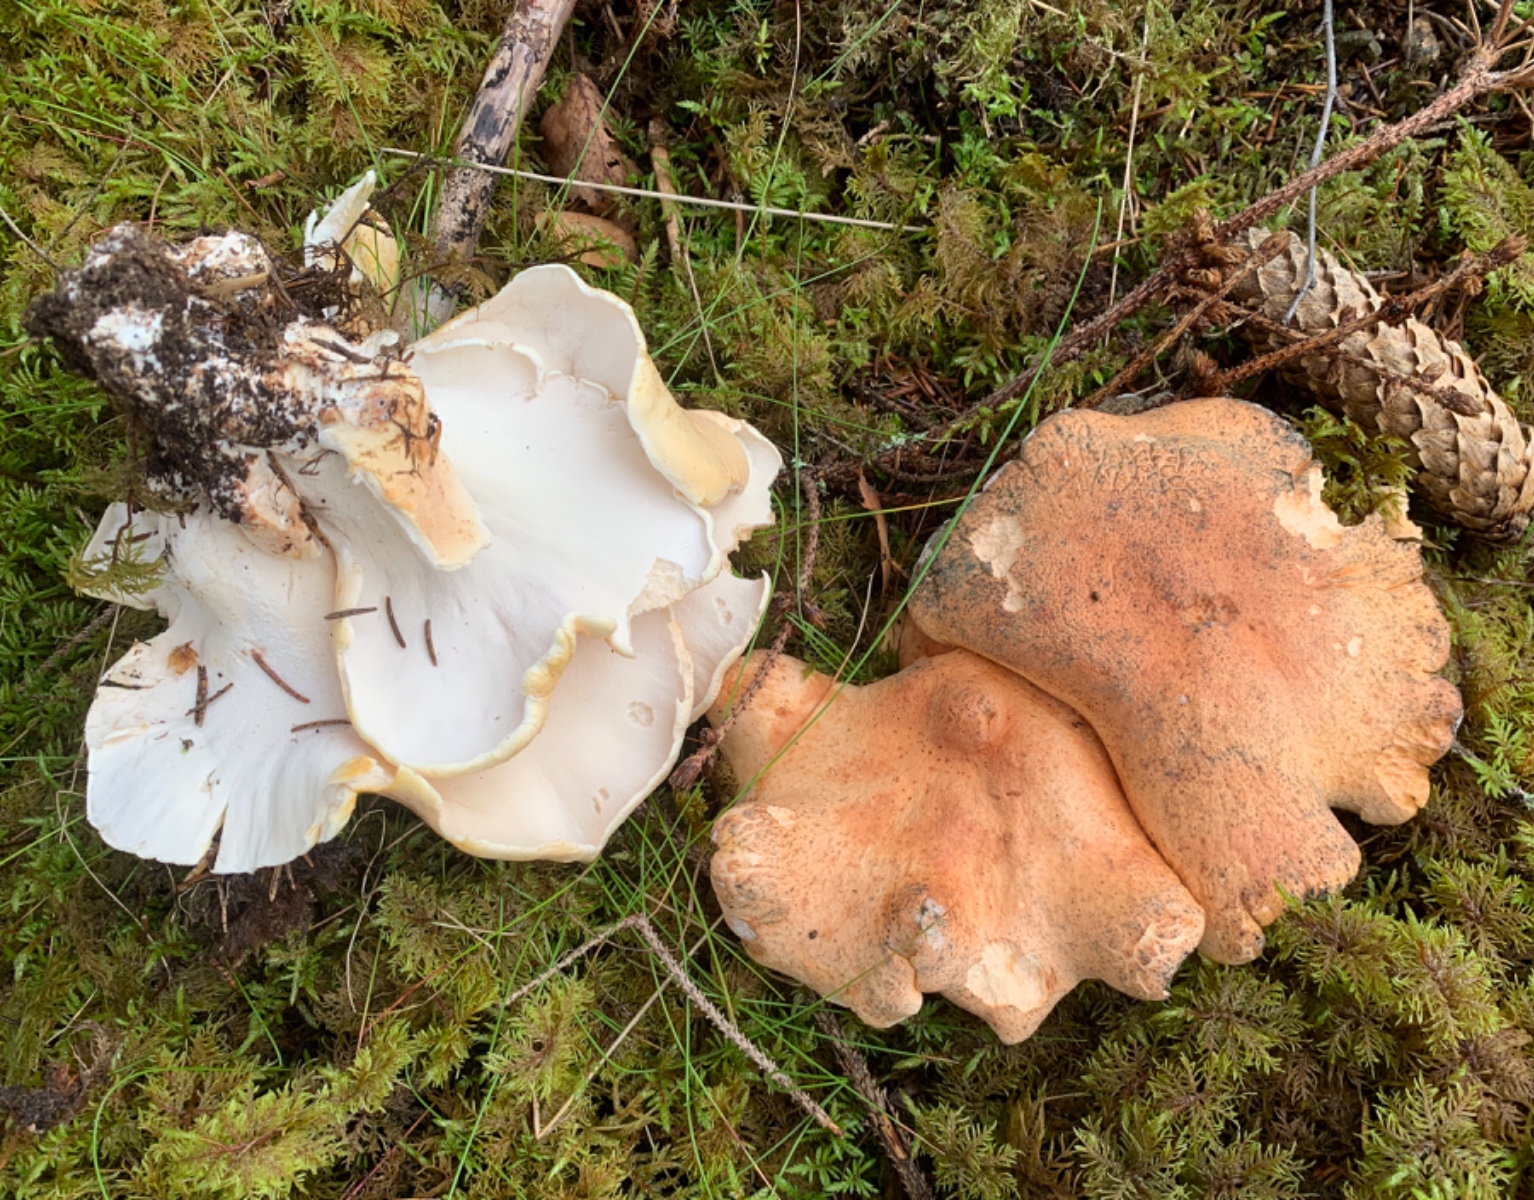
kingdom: Fungi
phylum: Basidiomycota
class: Agaricomycetes
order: Russulales
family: Albatrellaceae
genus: Albatrellopsis
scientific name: Albatrellopsis confluens
